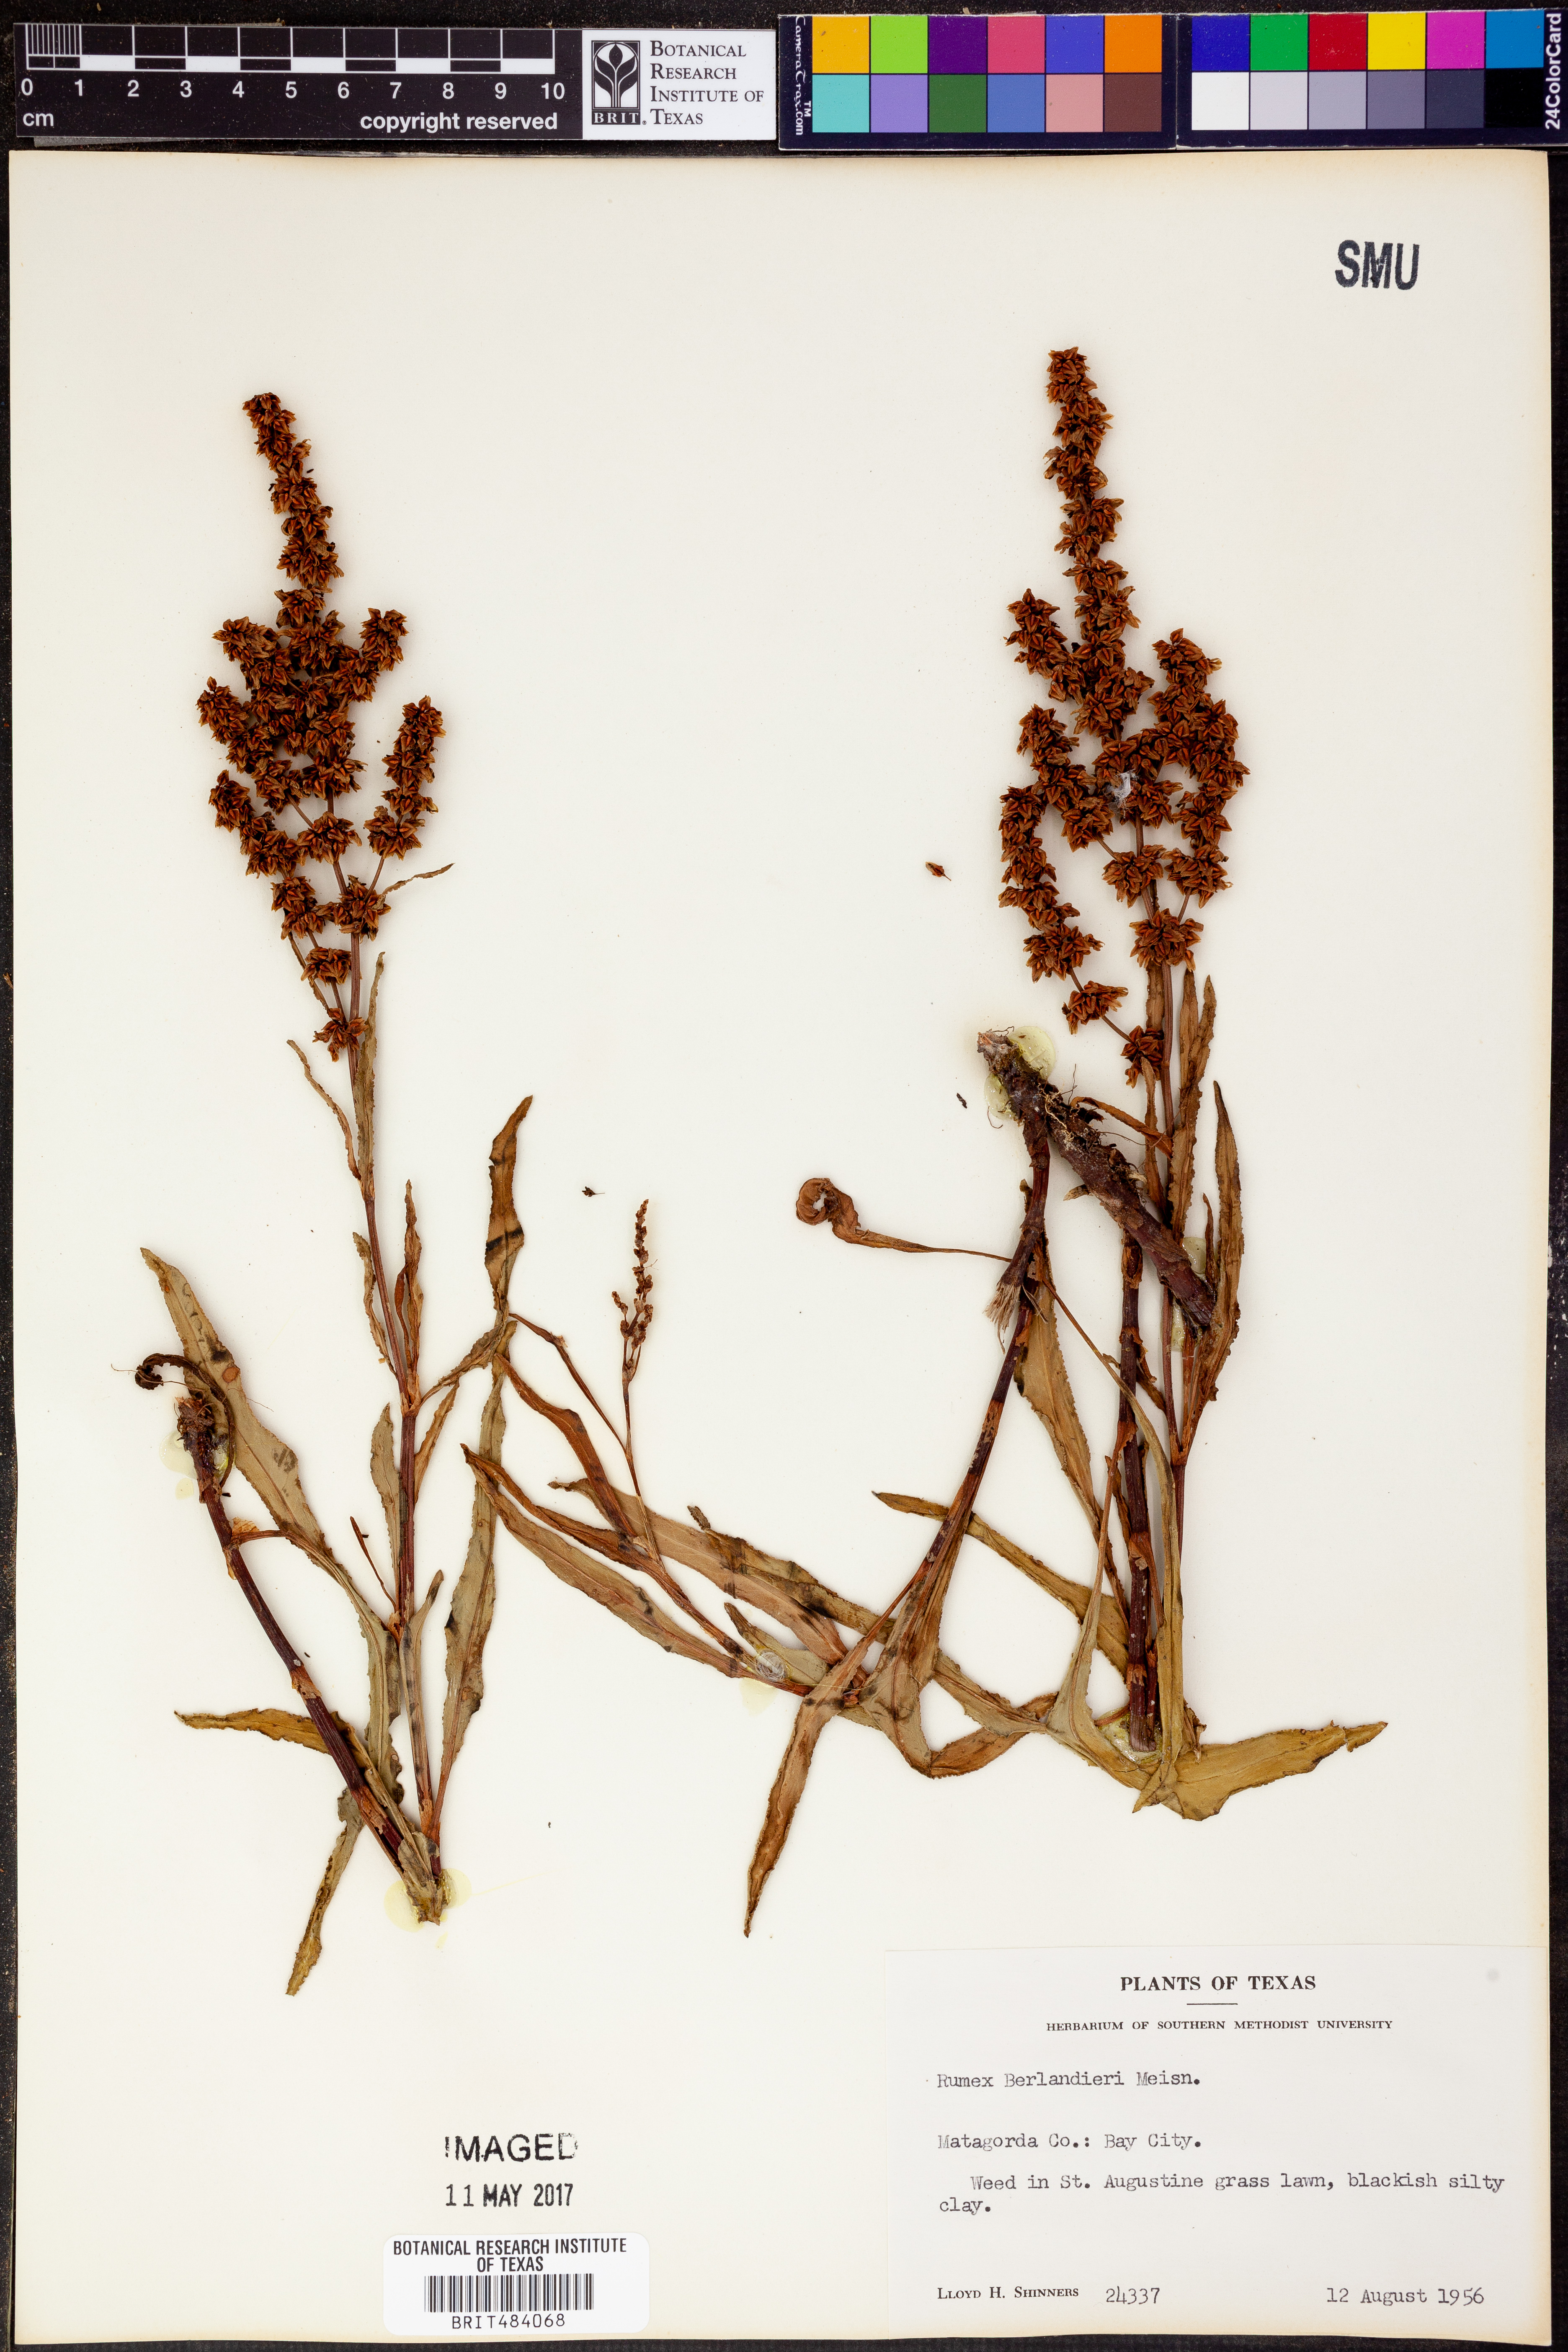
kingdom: Plantae
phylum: Tracheophyta
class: Magnoliopsida
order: Caryophyllales
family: Polygonaceae
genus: Rumex
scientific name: Rumex chrysocarpus
